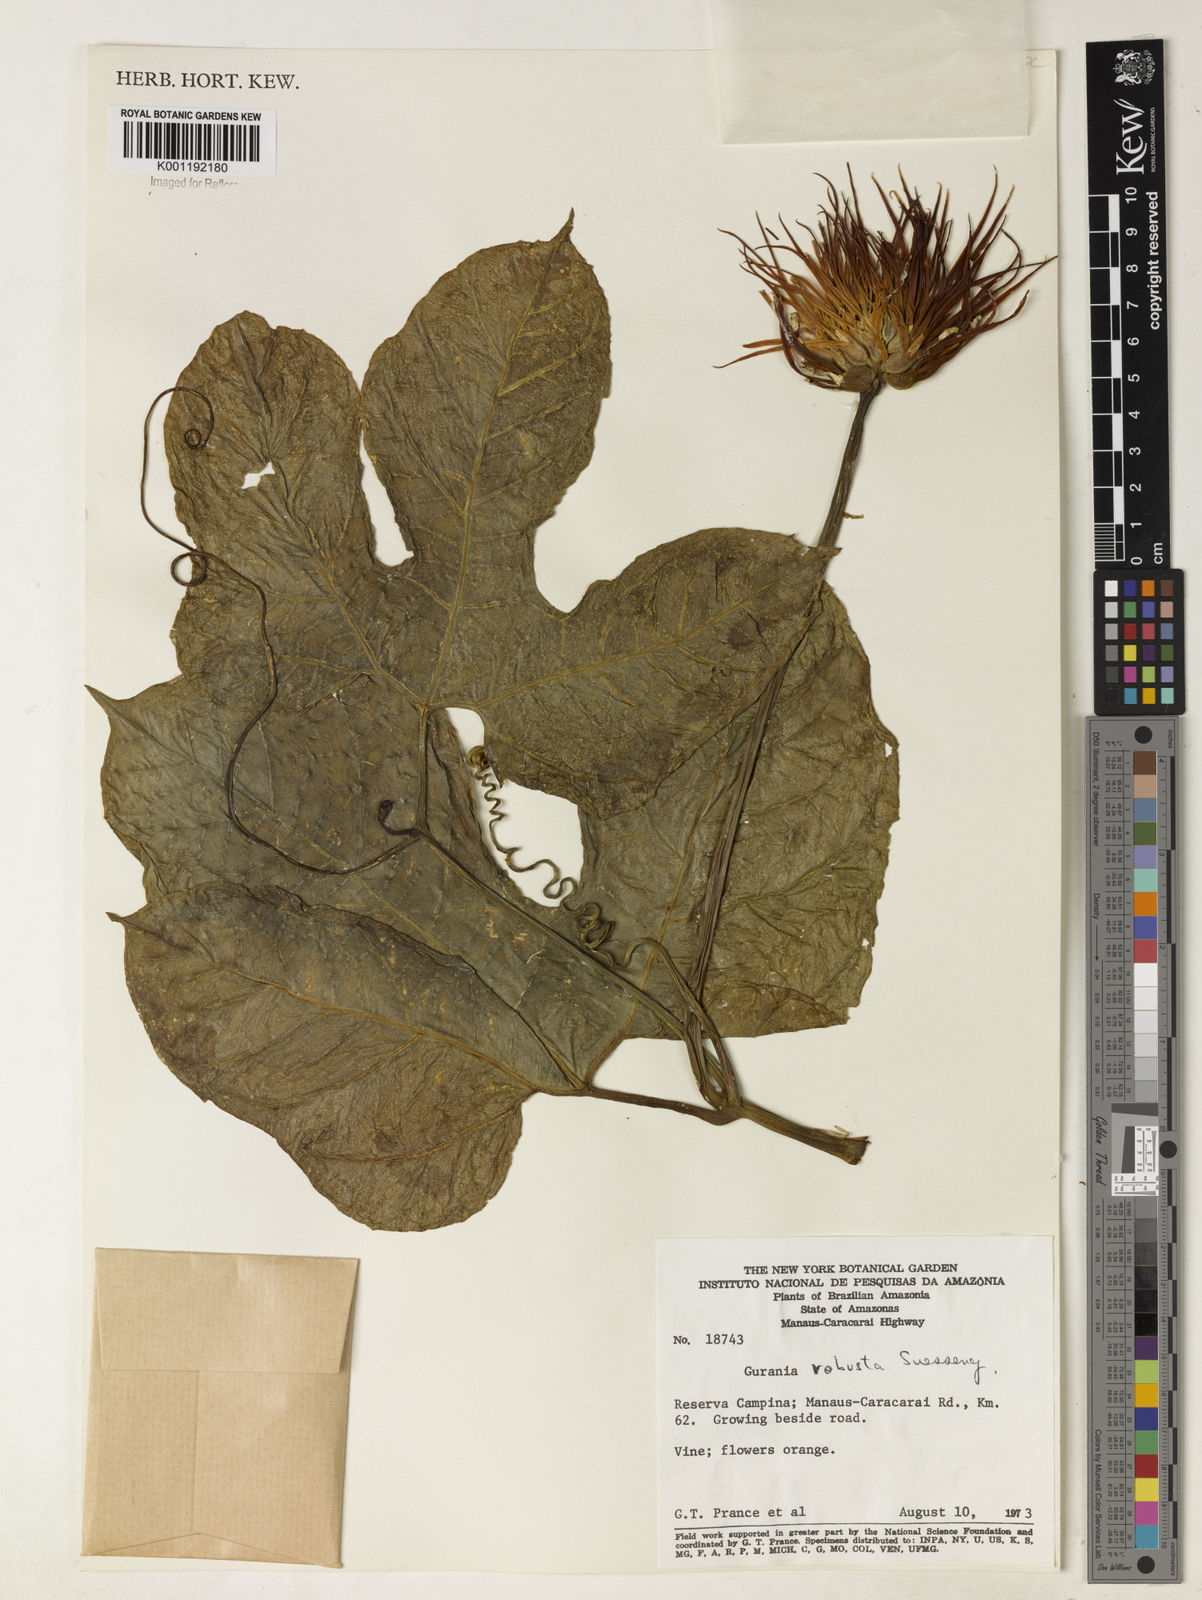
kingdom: Plantae
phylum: Tracheophyta
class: Magnoliopsida
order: Cucurbitales
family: Cucurbitaceae
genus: Gurania
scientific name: Gurania
